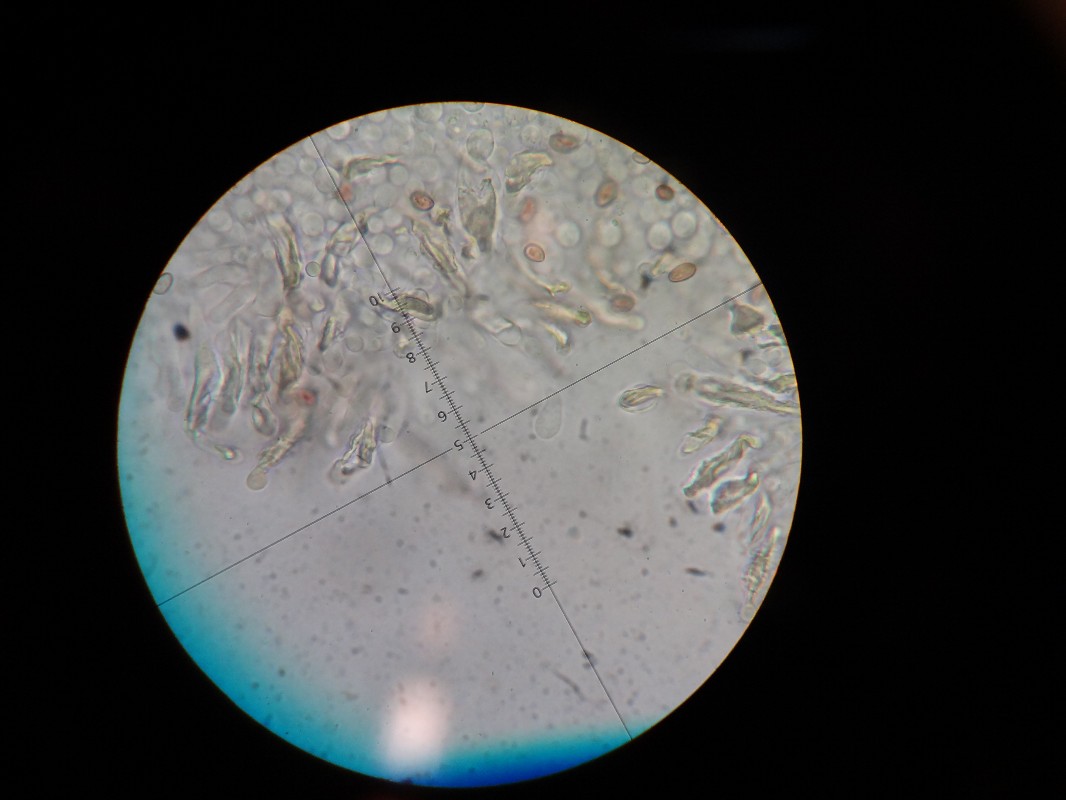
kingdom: Fungi
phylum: Basidiomycota
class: Agaricomycetes
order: Agaricales
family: Strophariaceae
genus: Stropharia
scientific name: Stropharia cyanea
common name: blågrøn bredblad
